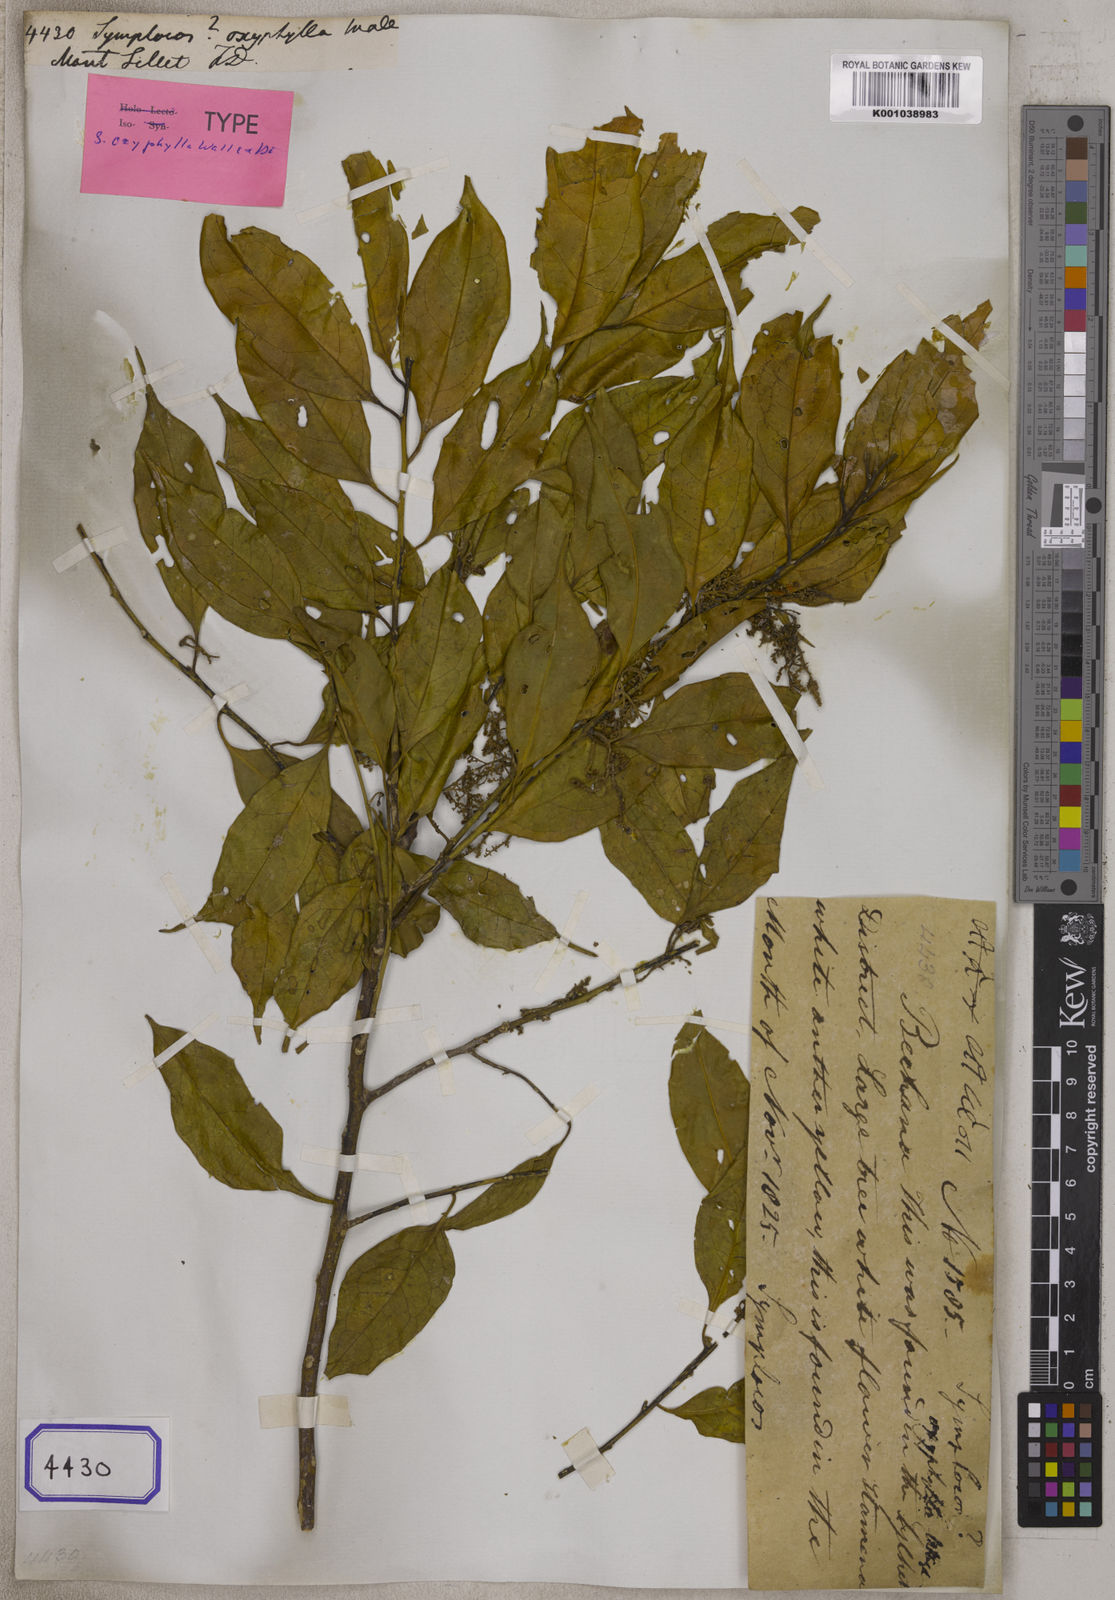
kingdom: Plantae
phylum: Tracheophyta
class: Magnoliopsida
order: Ericales
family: Symplocaceae
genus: Symplocos
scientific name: Symplocos
